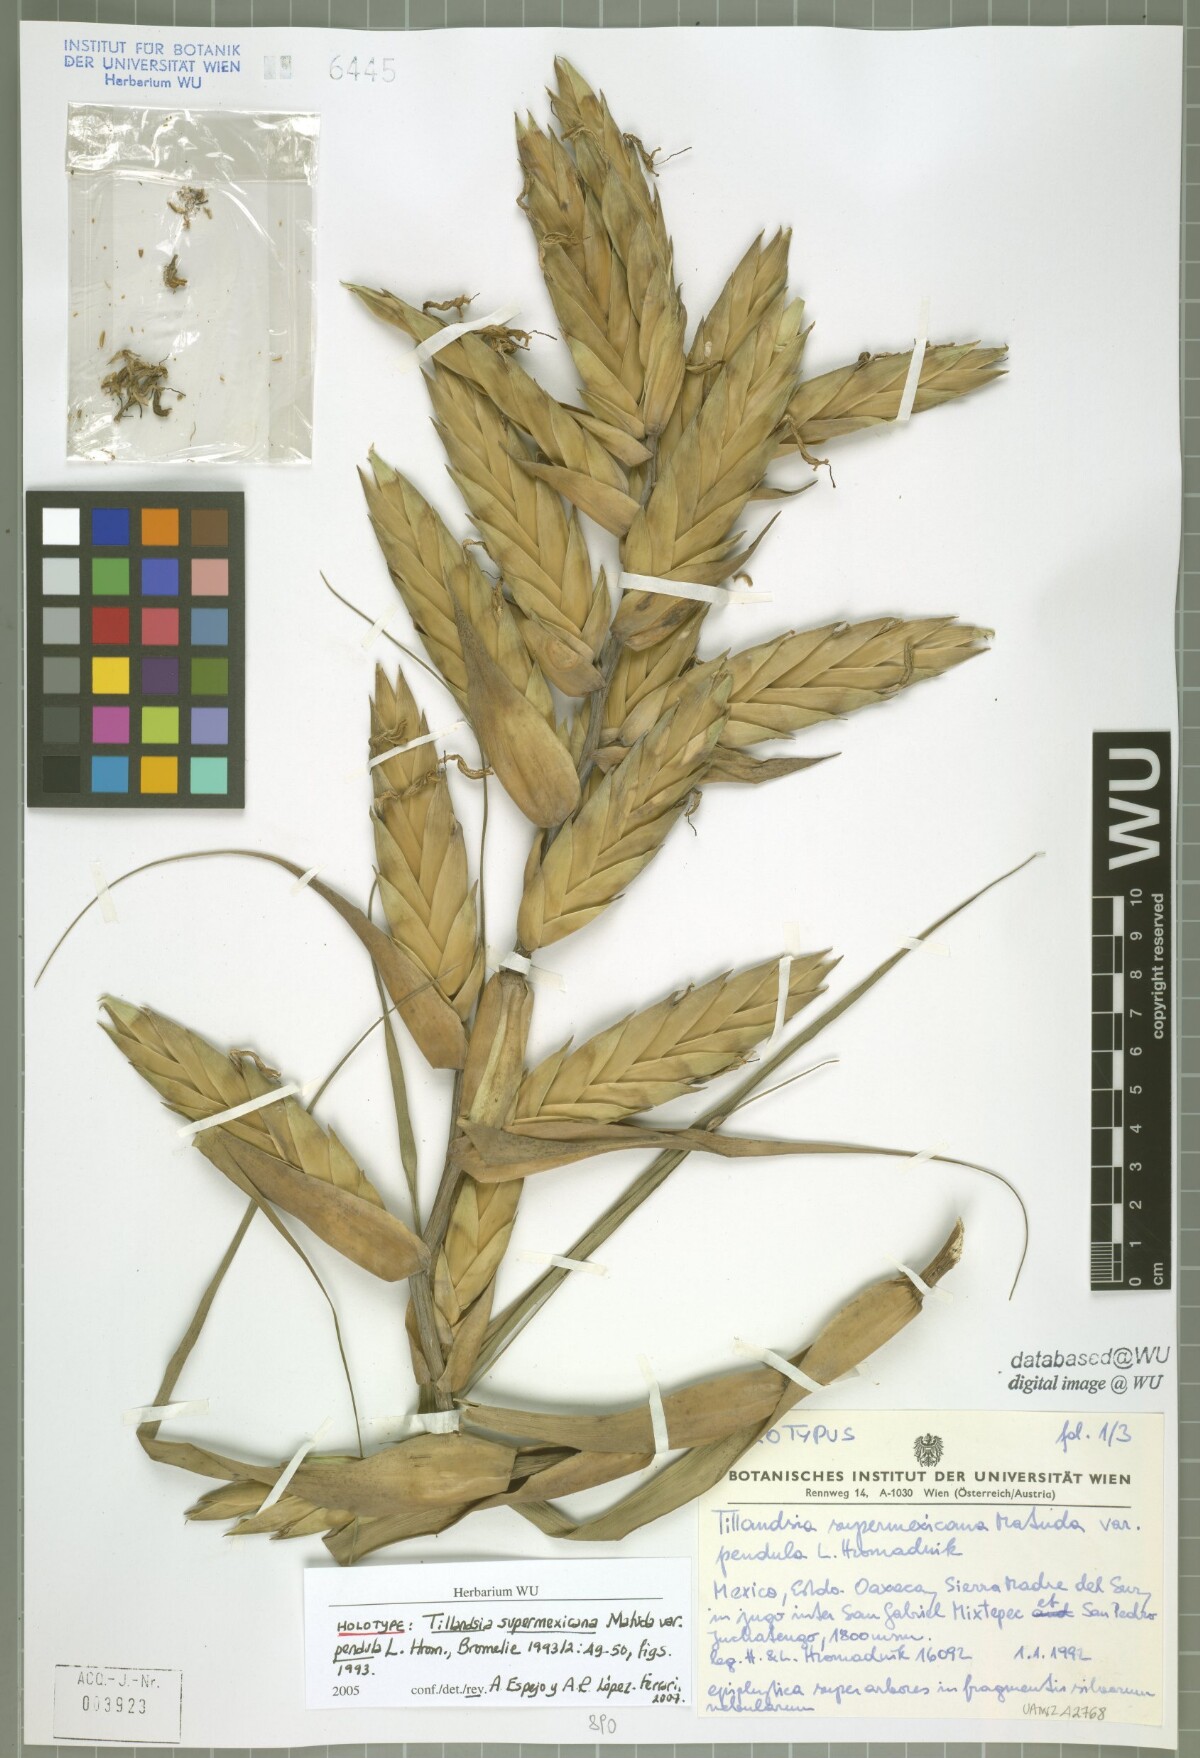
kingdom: Plantae
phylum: Tracheophyta
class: Liliopsida
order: Poales
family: Bromeliaceae
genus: Tillandsia
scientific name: Tillandsia supermexicana
